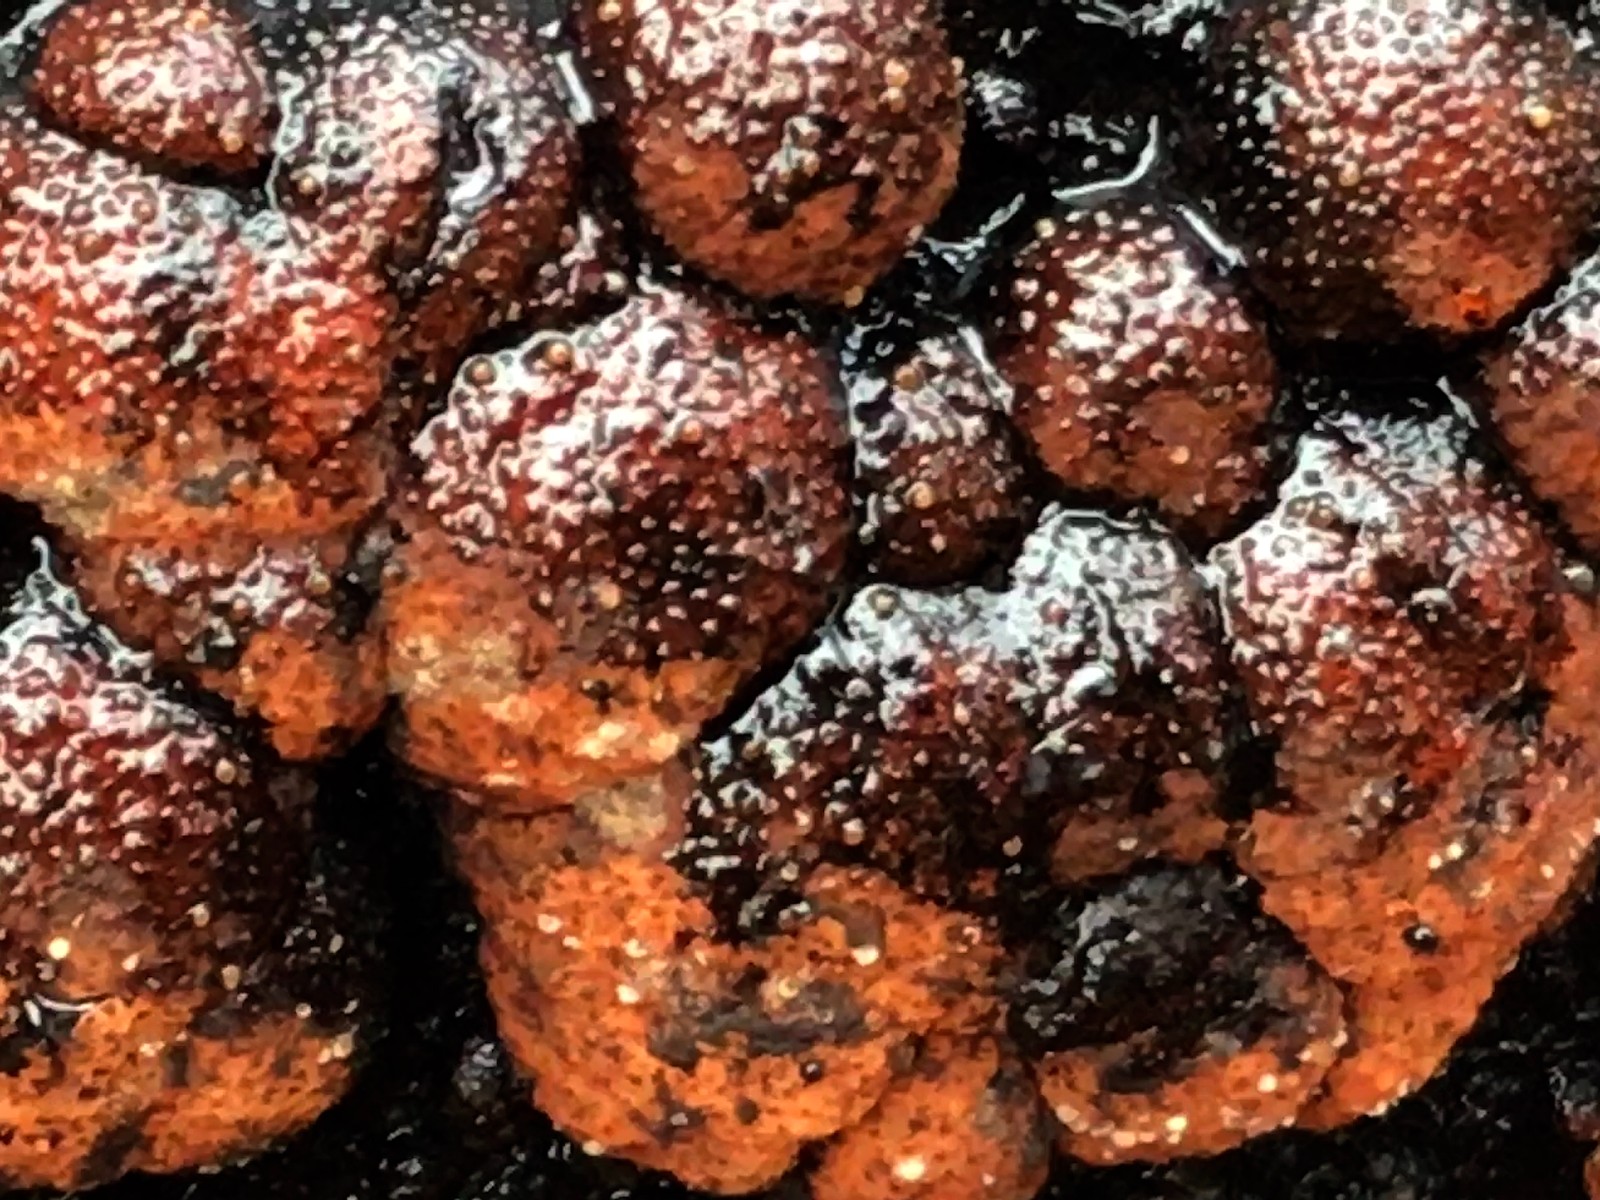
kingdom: Fungi
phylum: Ascomycota
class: Sordariomycetes
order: Xylariales
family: Hypoxylaceae
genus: Hypoxylon
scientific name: Hypoxylon fragiforme
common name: kuljordbær
